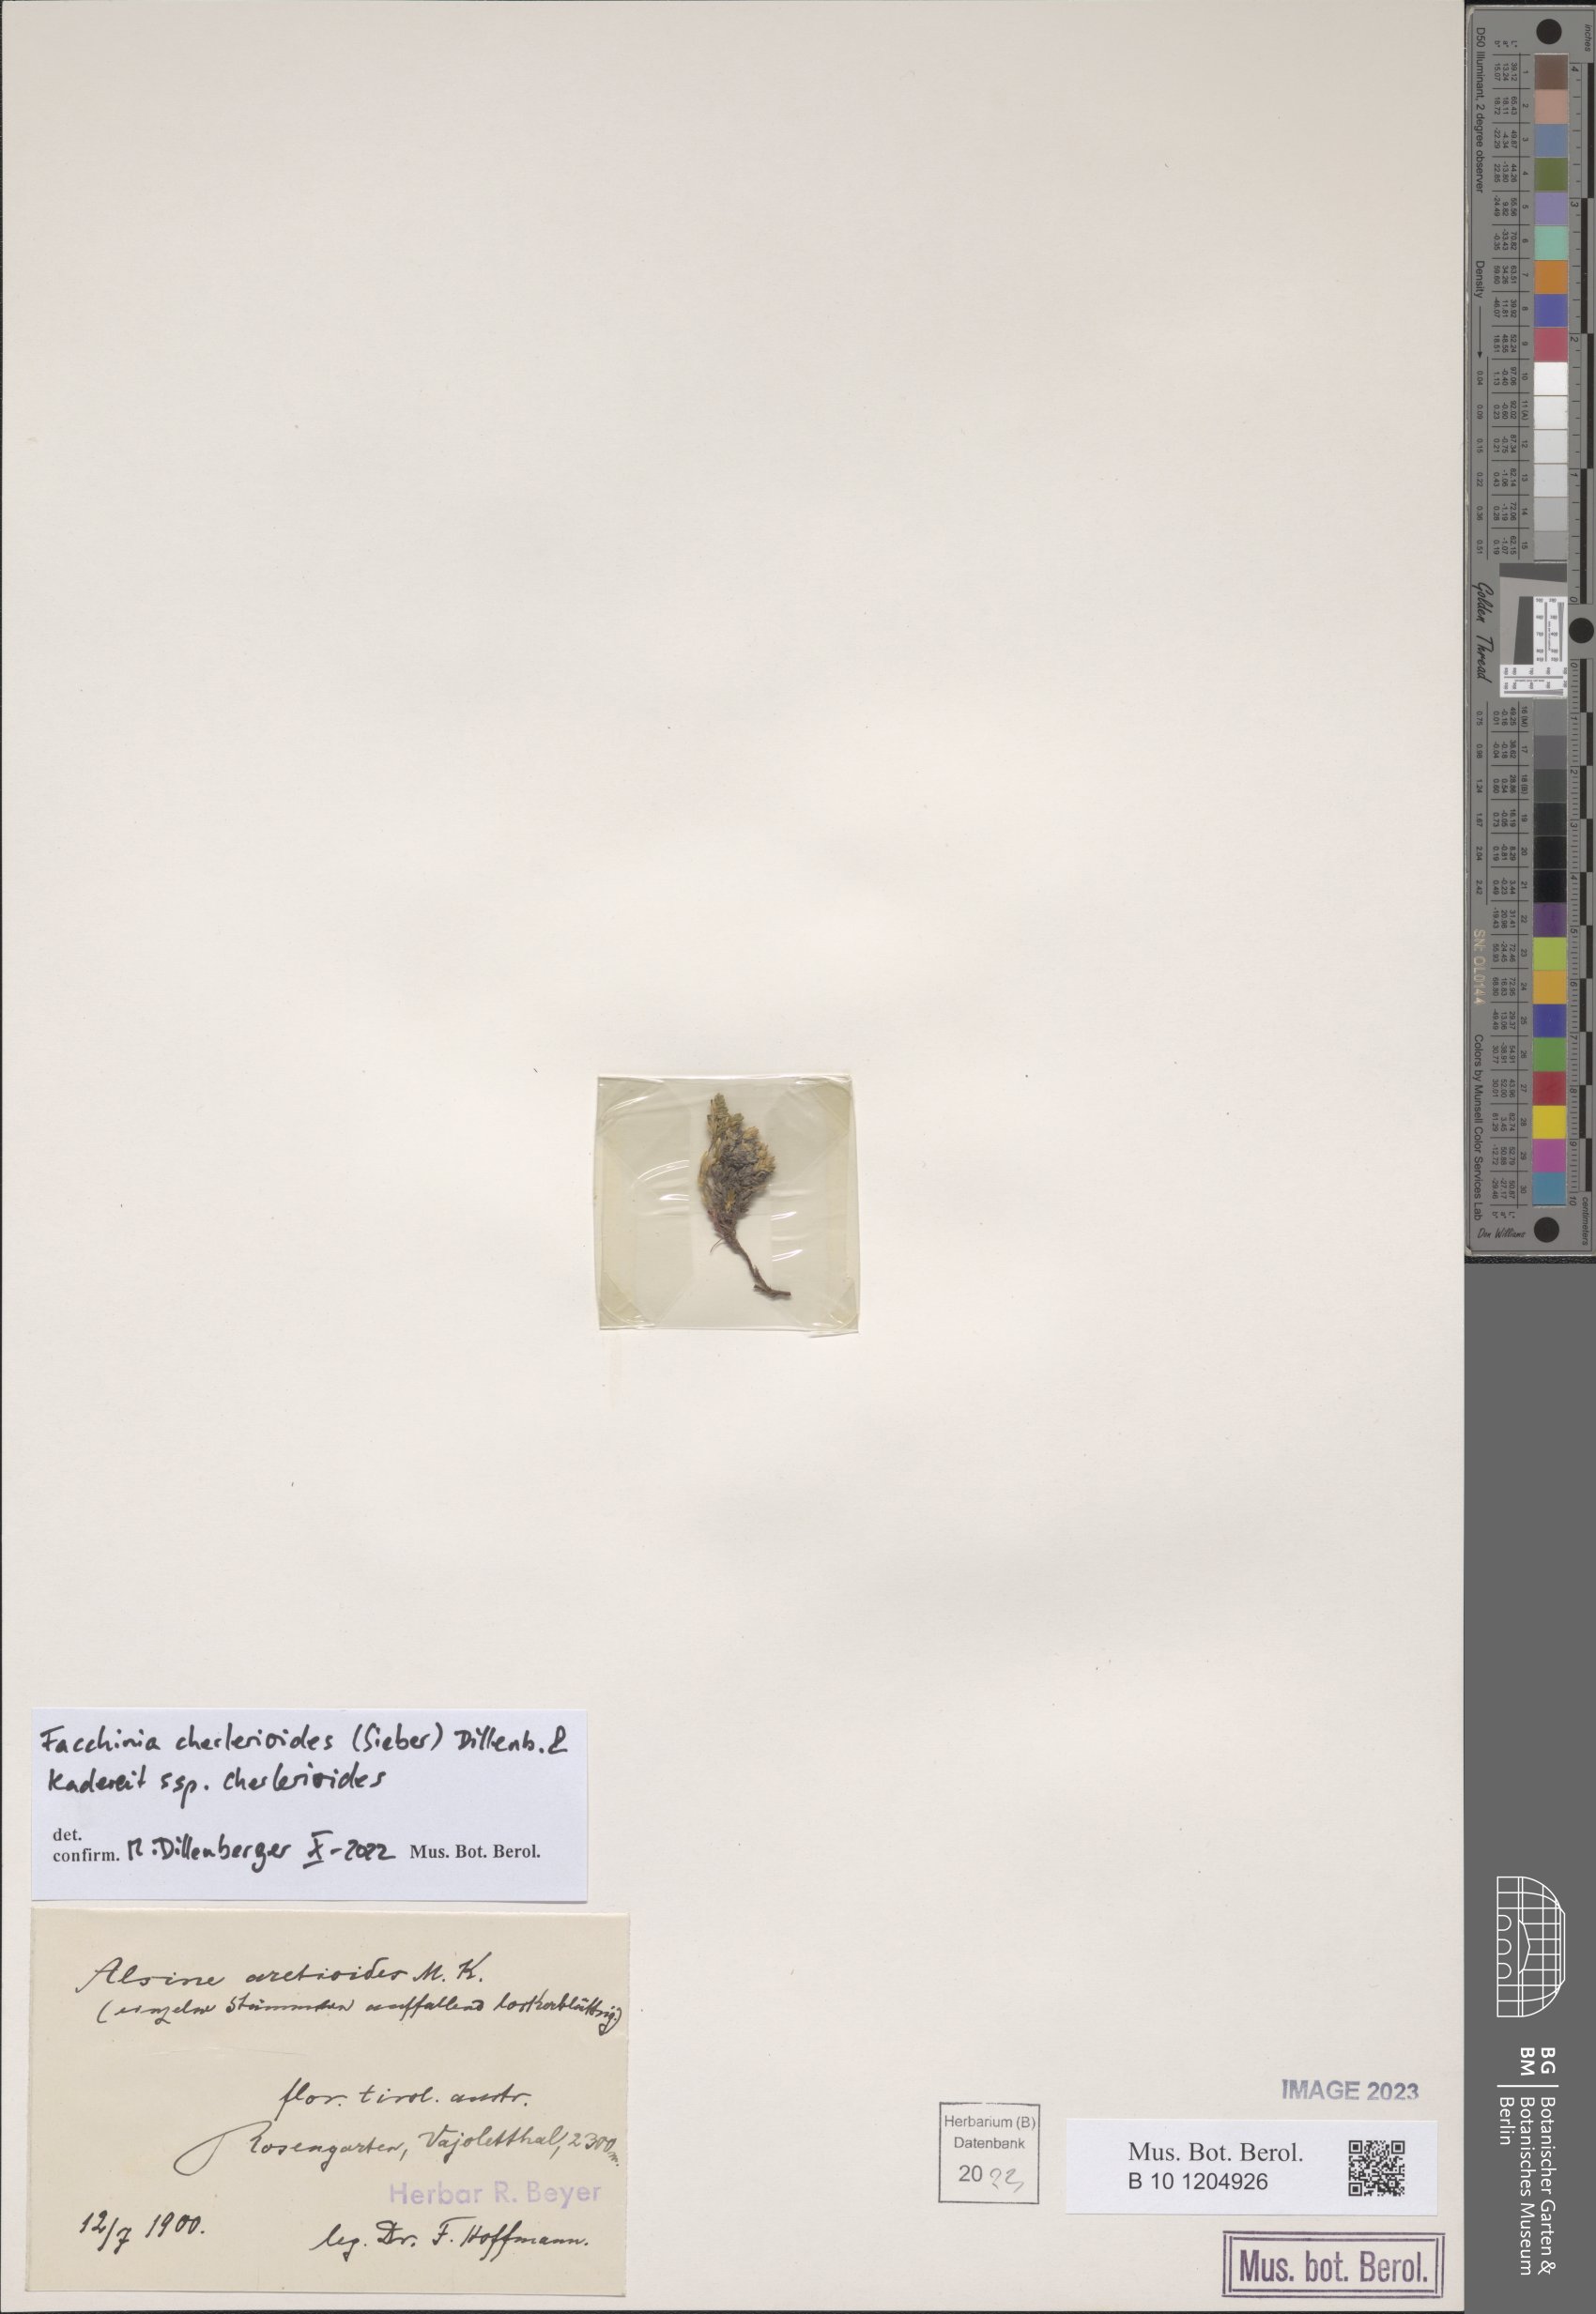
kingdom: Plantae
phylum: Tracheophyta
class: Magnoliopsida
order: Caryophyllales
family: Caryophyllaceae
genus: Facchinia
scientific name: Facchinia cherlerioides
